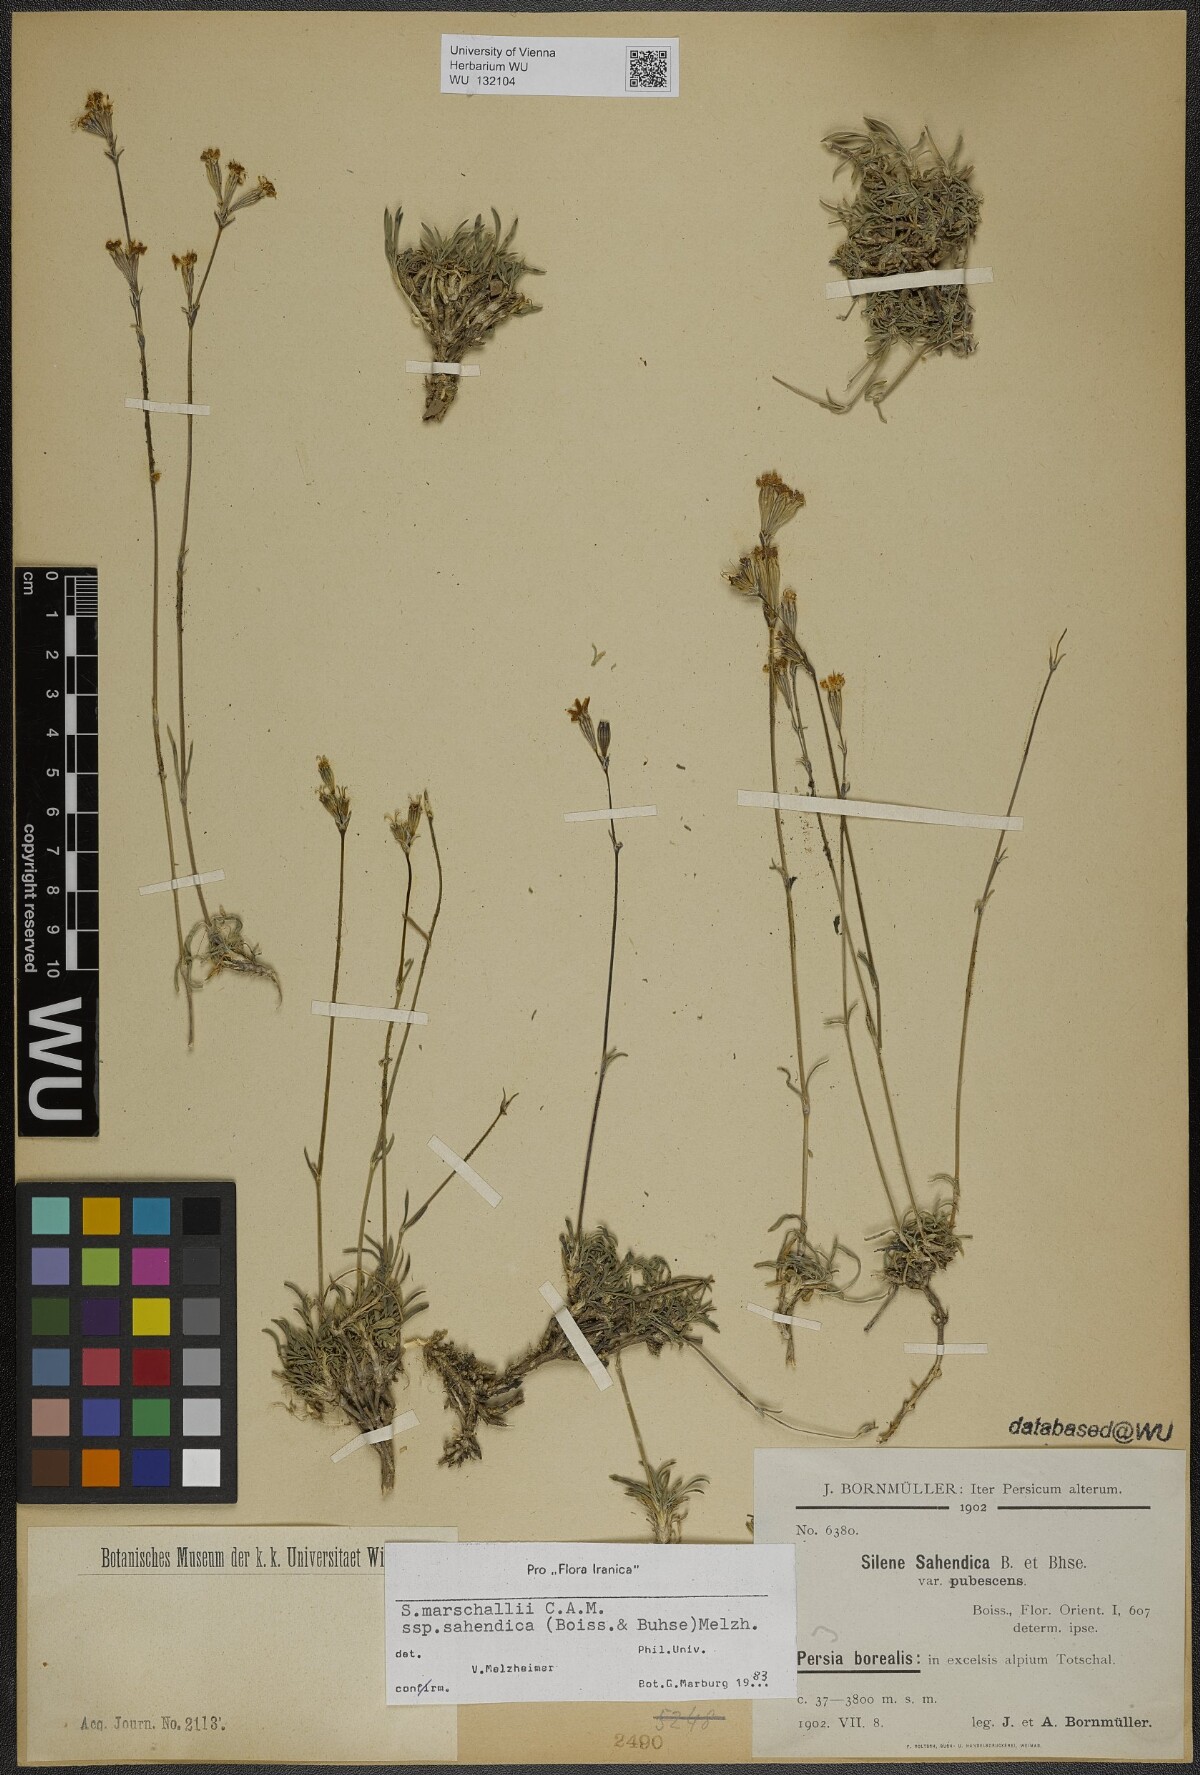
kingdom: Plantae
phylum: Tracheophyta
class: Magnoliopsida
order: Caryophyllales
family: Caryophyllaceae
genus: Silene
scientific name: Silene lasiantha
